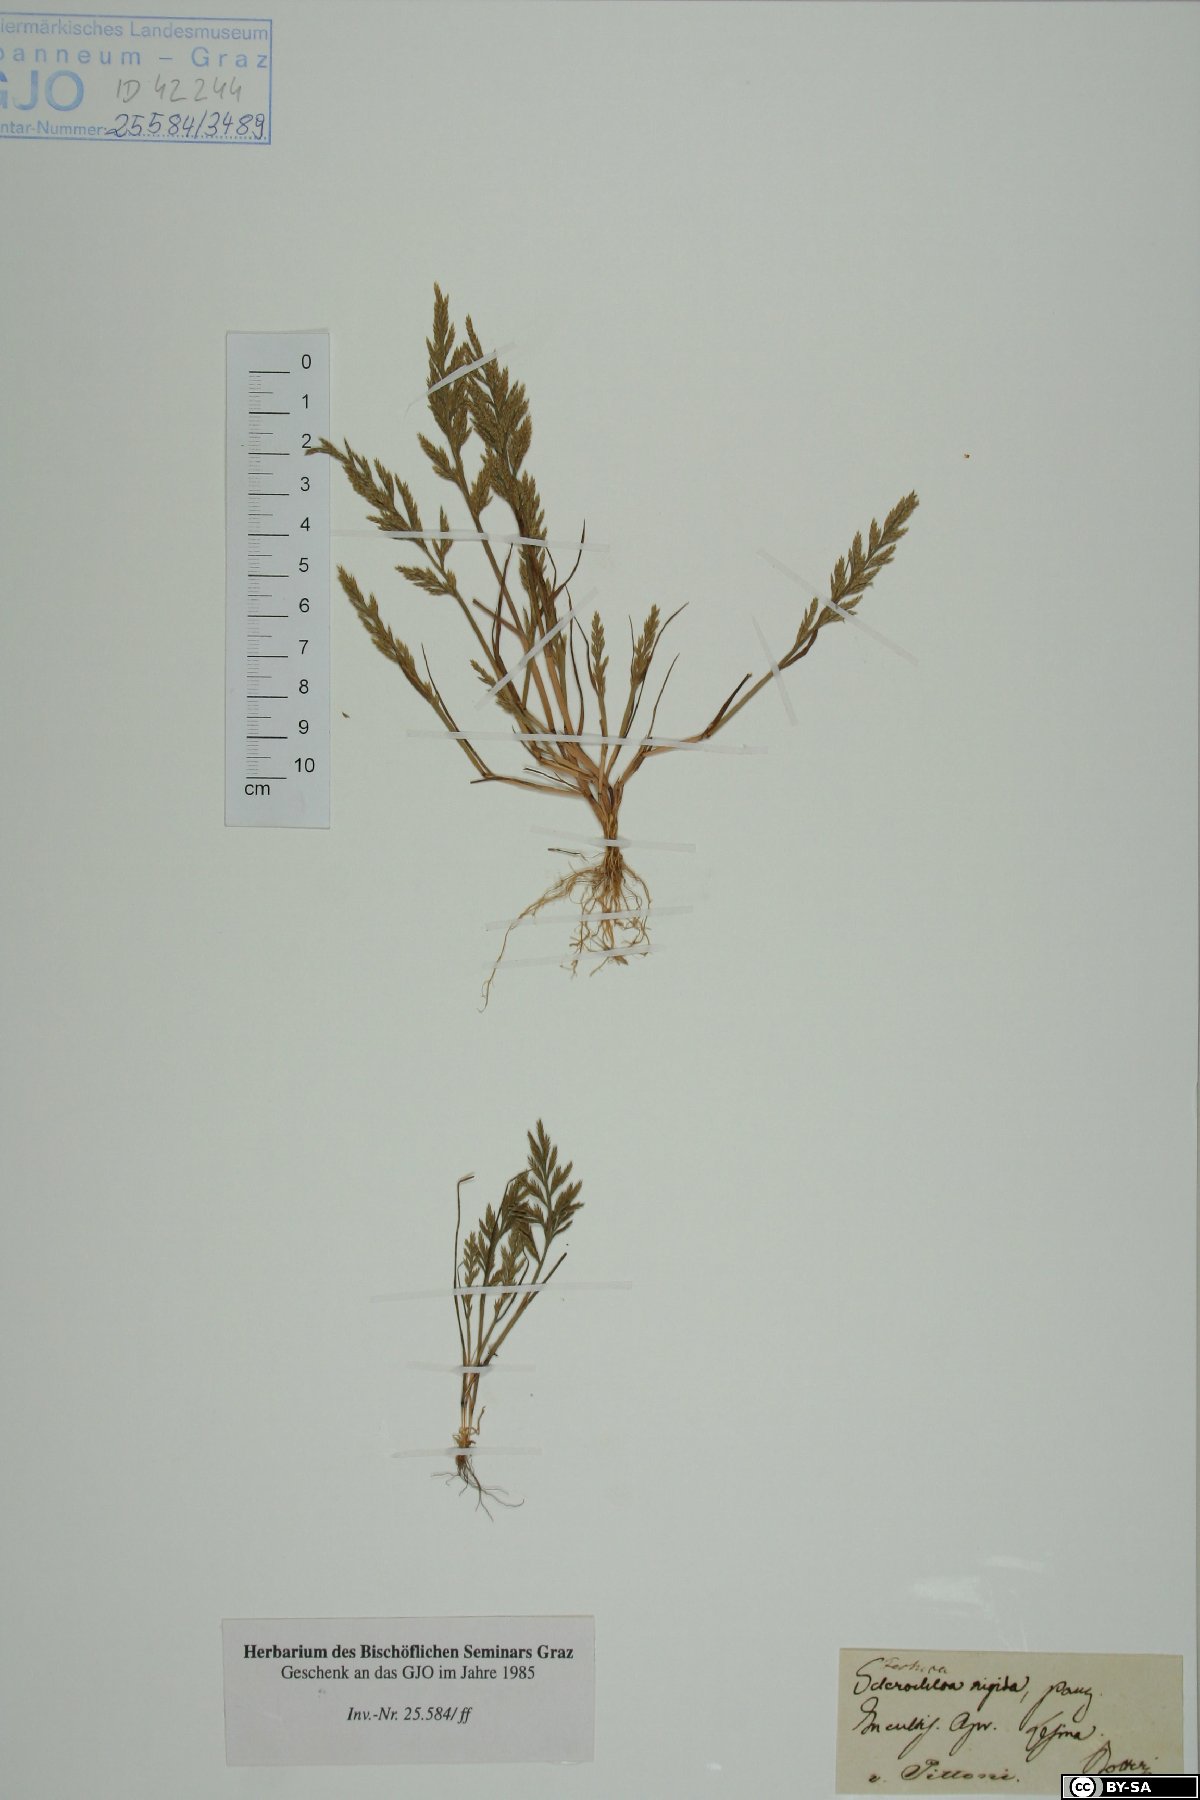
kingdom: Plantae
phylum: Tracheophyta
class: Liliopsida
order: Poales
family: Poaceae
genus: Catapodium
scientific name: Catapodium rigidum
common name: Fern-grass
